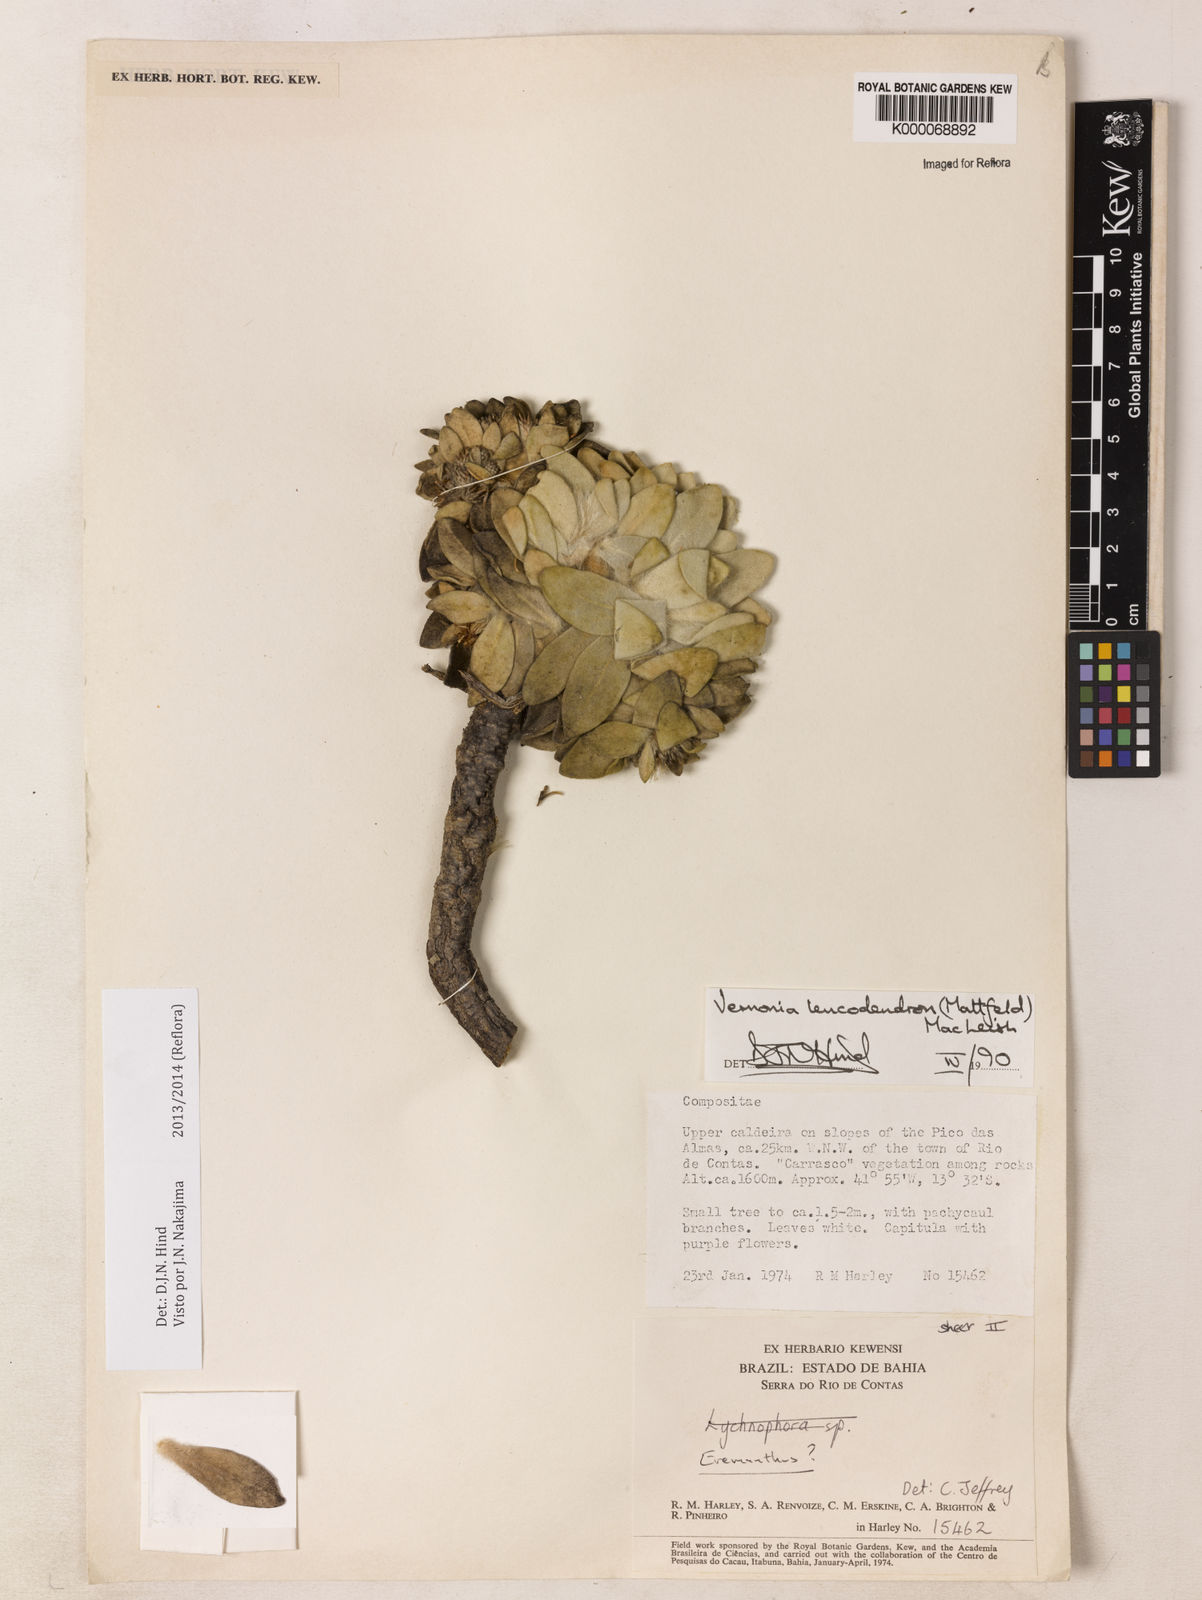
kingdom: Plantae
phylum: Tracheophyta
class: Magnoliopsida
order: Asterales
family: Asteraceae
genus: Lychnophorella
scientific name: Lychnophorella leucodendron
